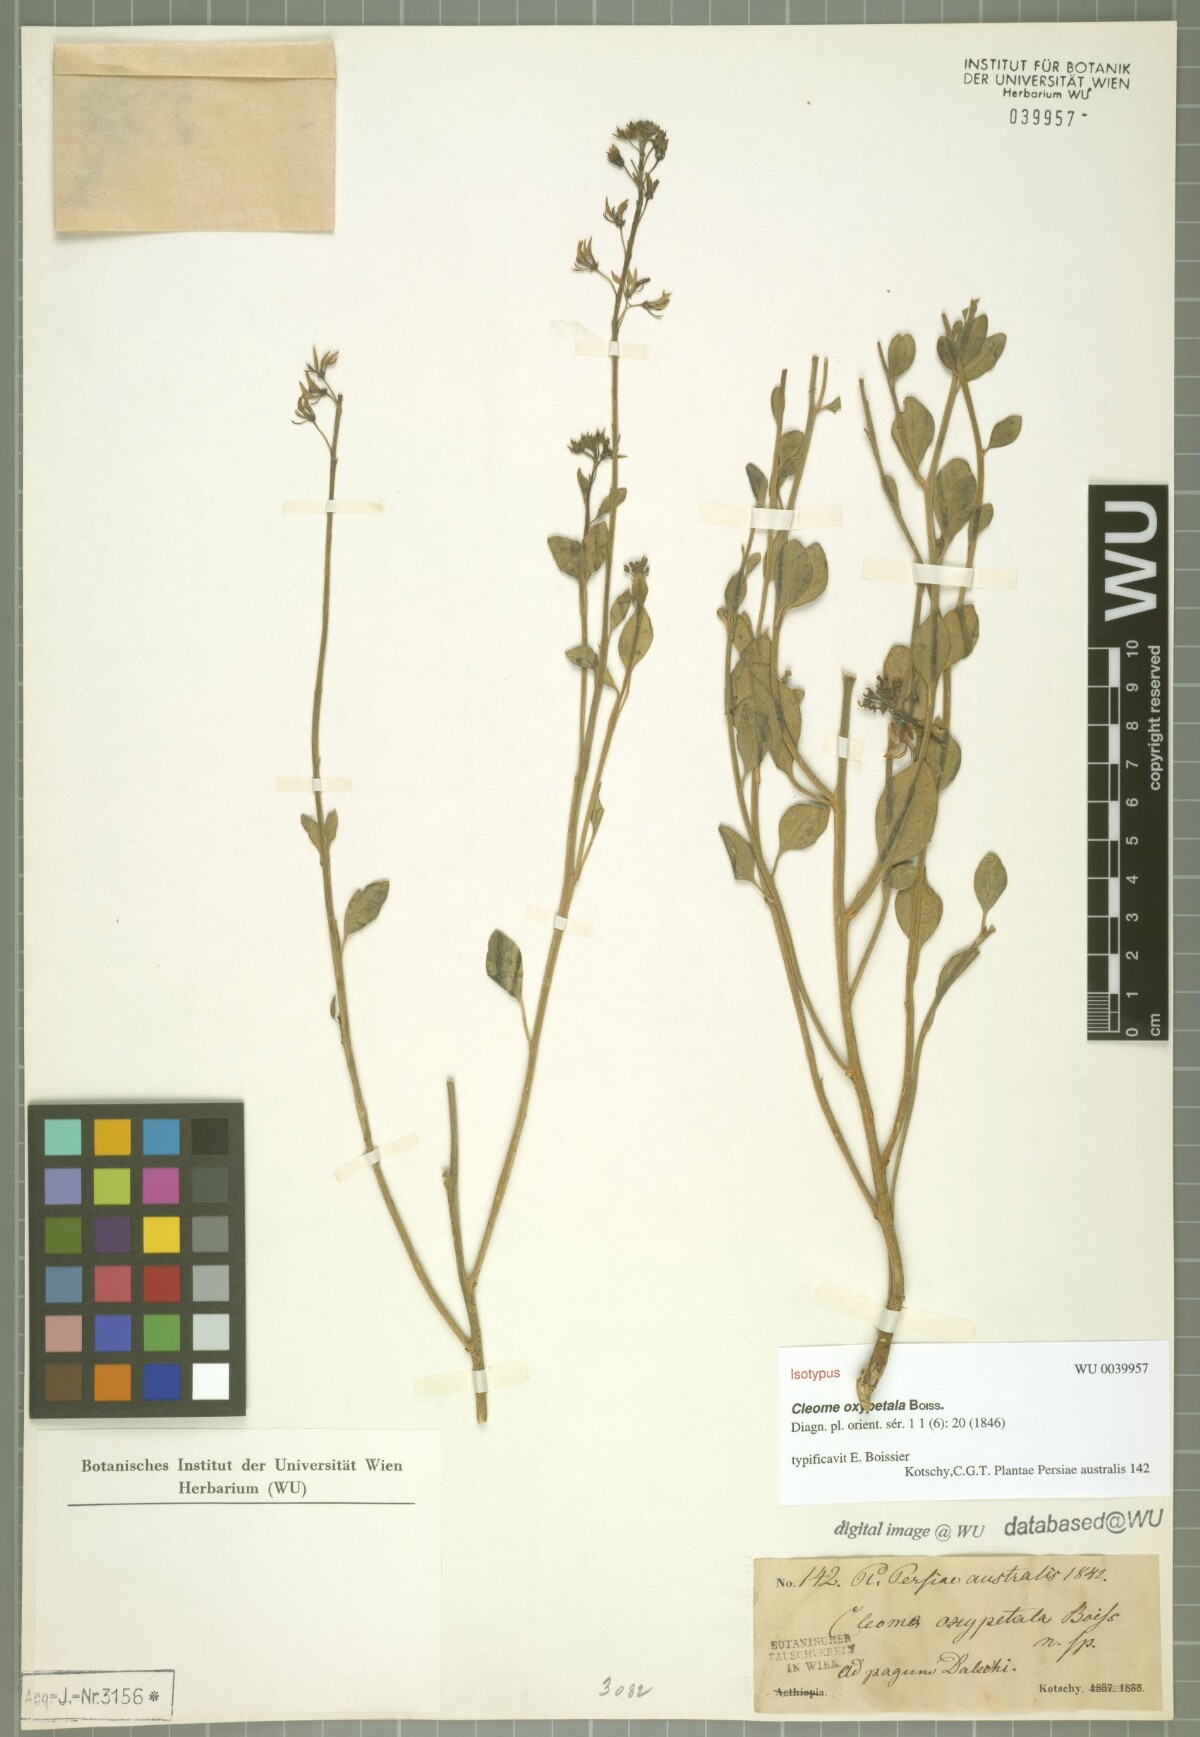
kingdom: Plantae
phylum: Tracheophyta
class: Magnoliopsida
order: Brassicales
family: Cleomaceae
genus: Cleome
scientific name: Cleome oxypetala
